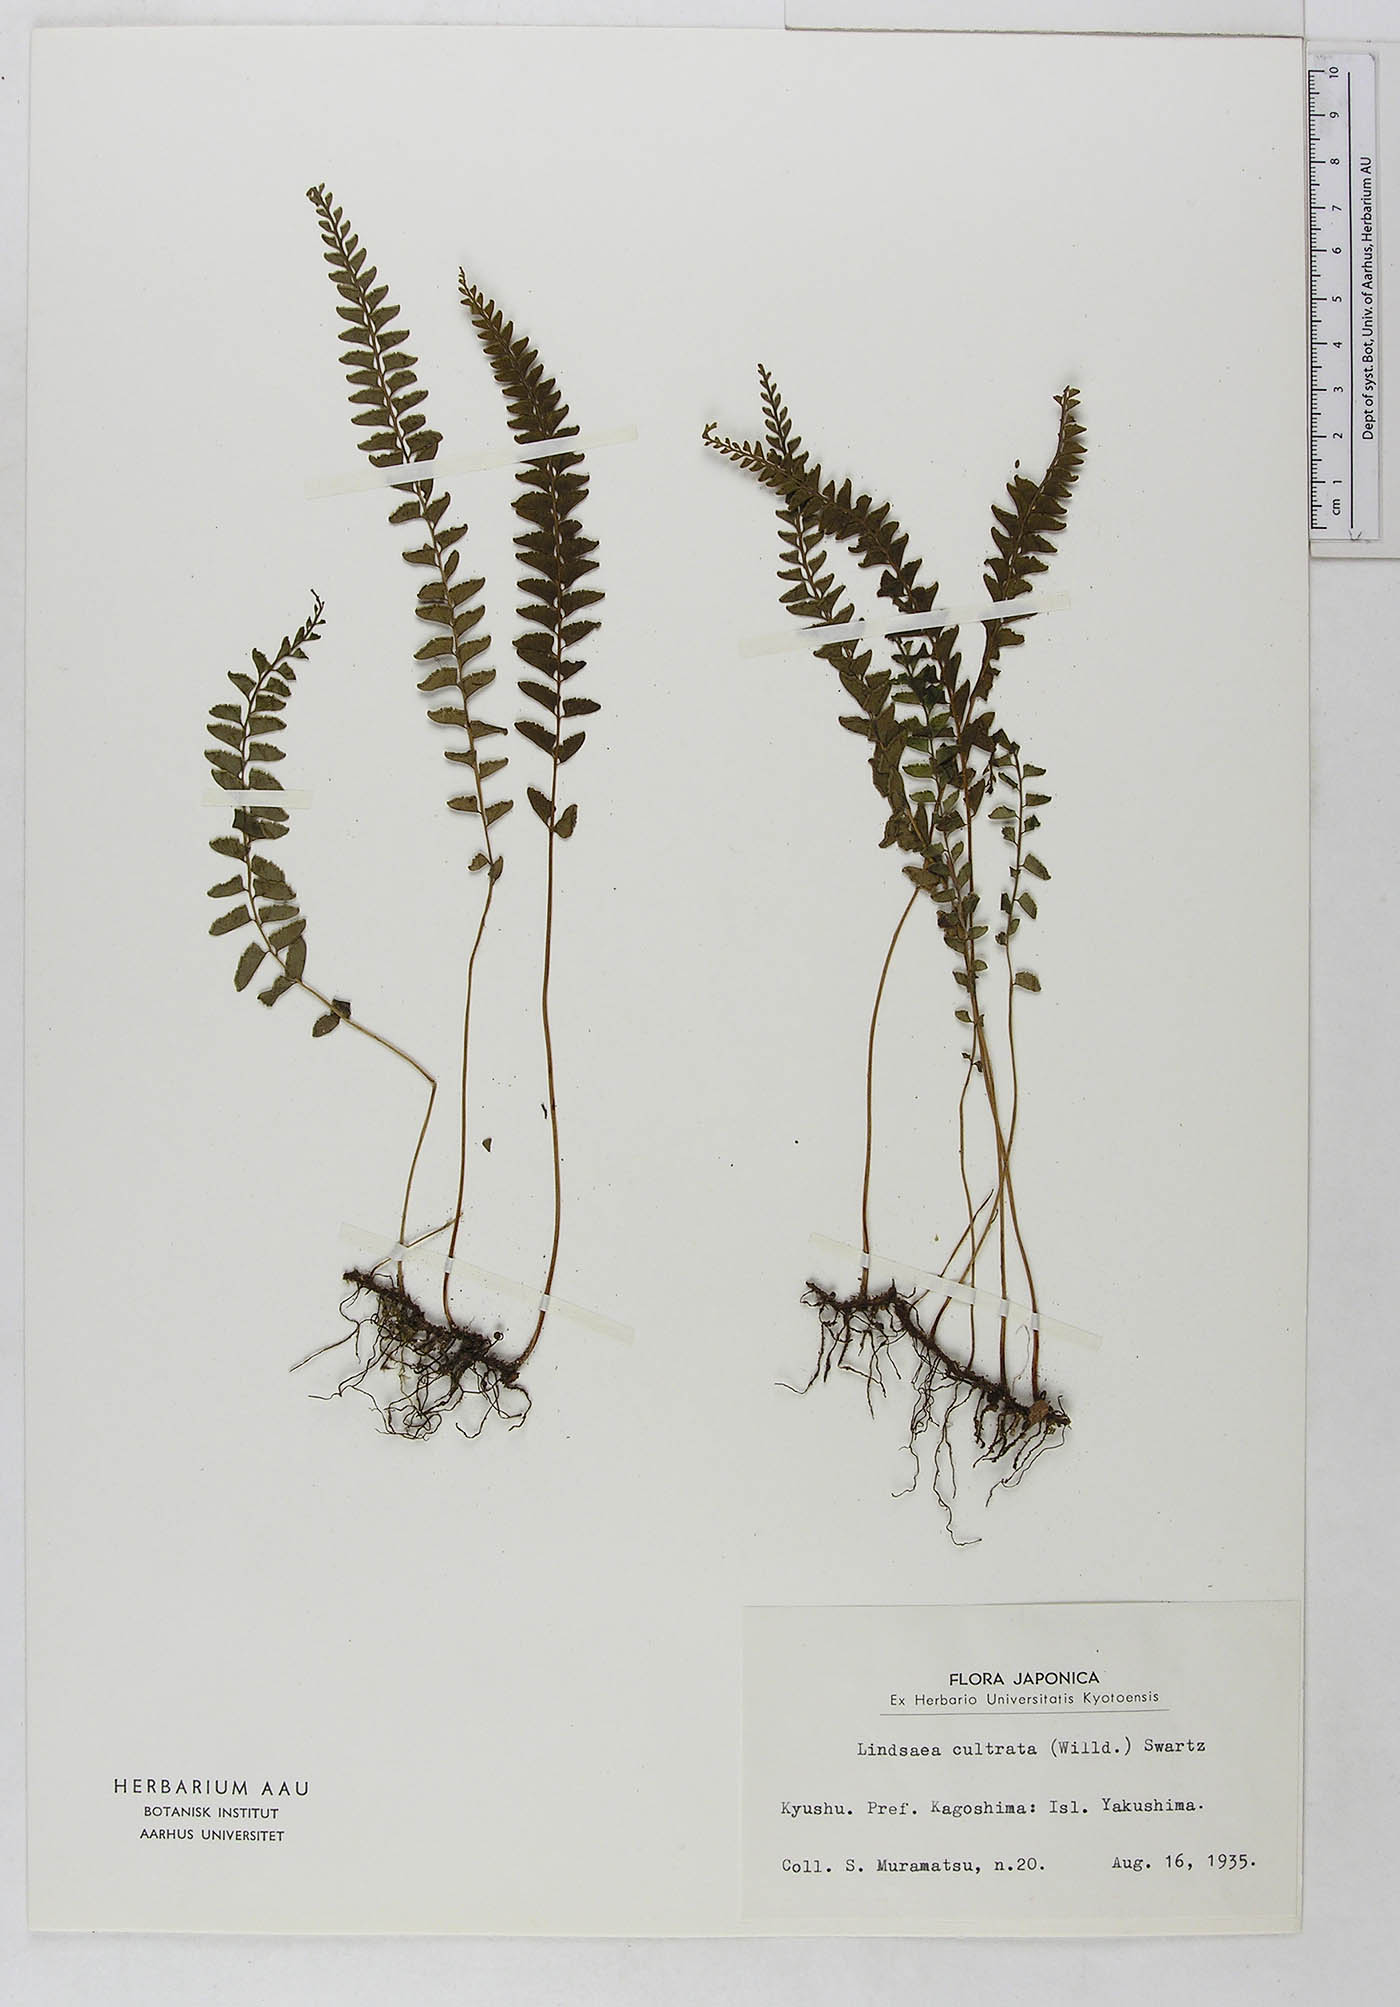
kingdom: Plantae
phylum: Tracheophyta
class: Polypodiopsida
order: Polypodiales
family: Lindsaeaceae
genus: Lindsaea
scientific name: Lindsaea cultrata
